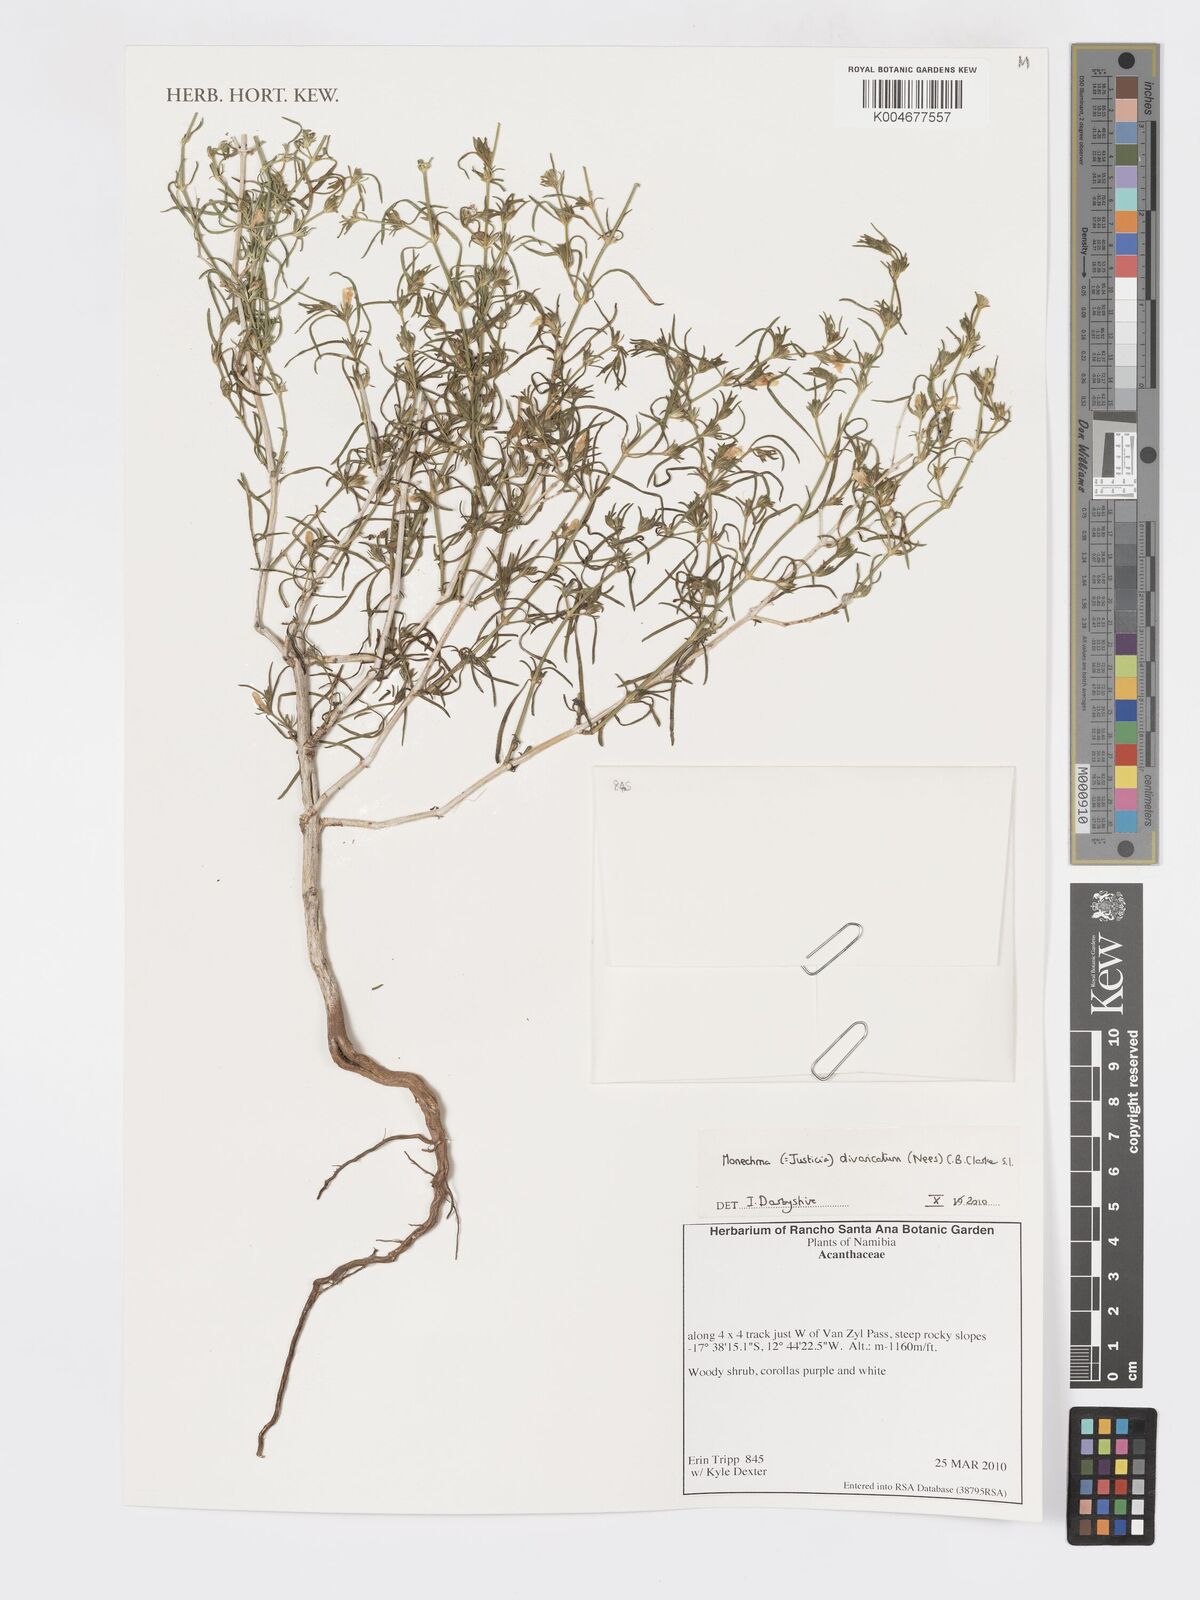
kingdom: Plantae
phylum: Tracheophyta
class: Magnoliopsida
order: Lamiales
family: Acanthaceae
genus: Pogonospermum
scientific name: Pogonospermum
